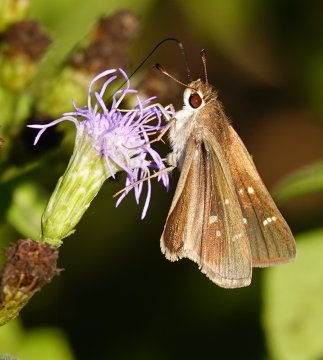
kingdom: Animalia
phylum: Arthropoda
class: Insecta
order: Lepidoptera
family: Hesperiidae
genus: Lerodea
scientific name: Lerodea eufala
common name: Eufala Skipper
